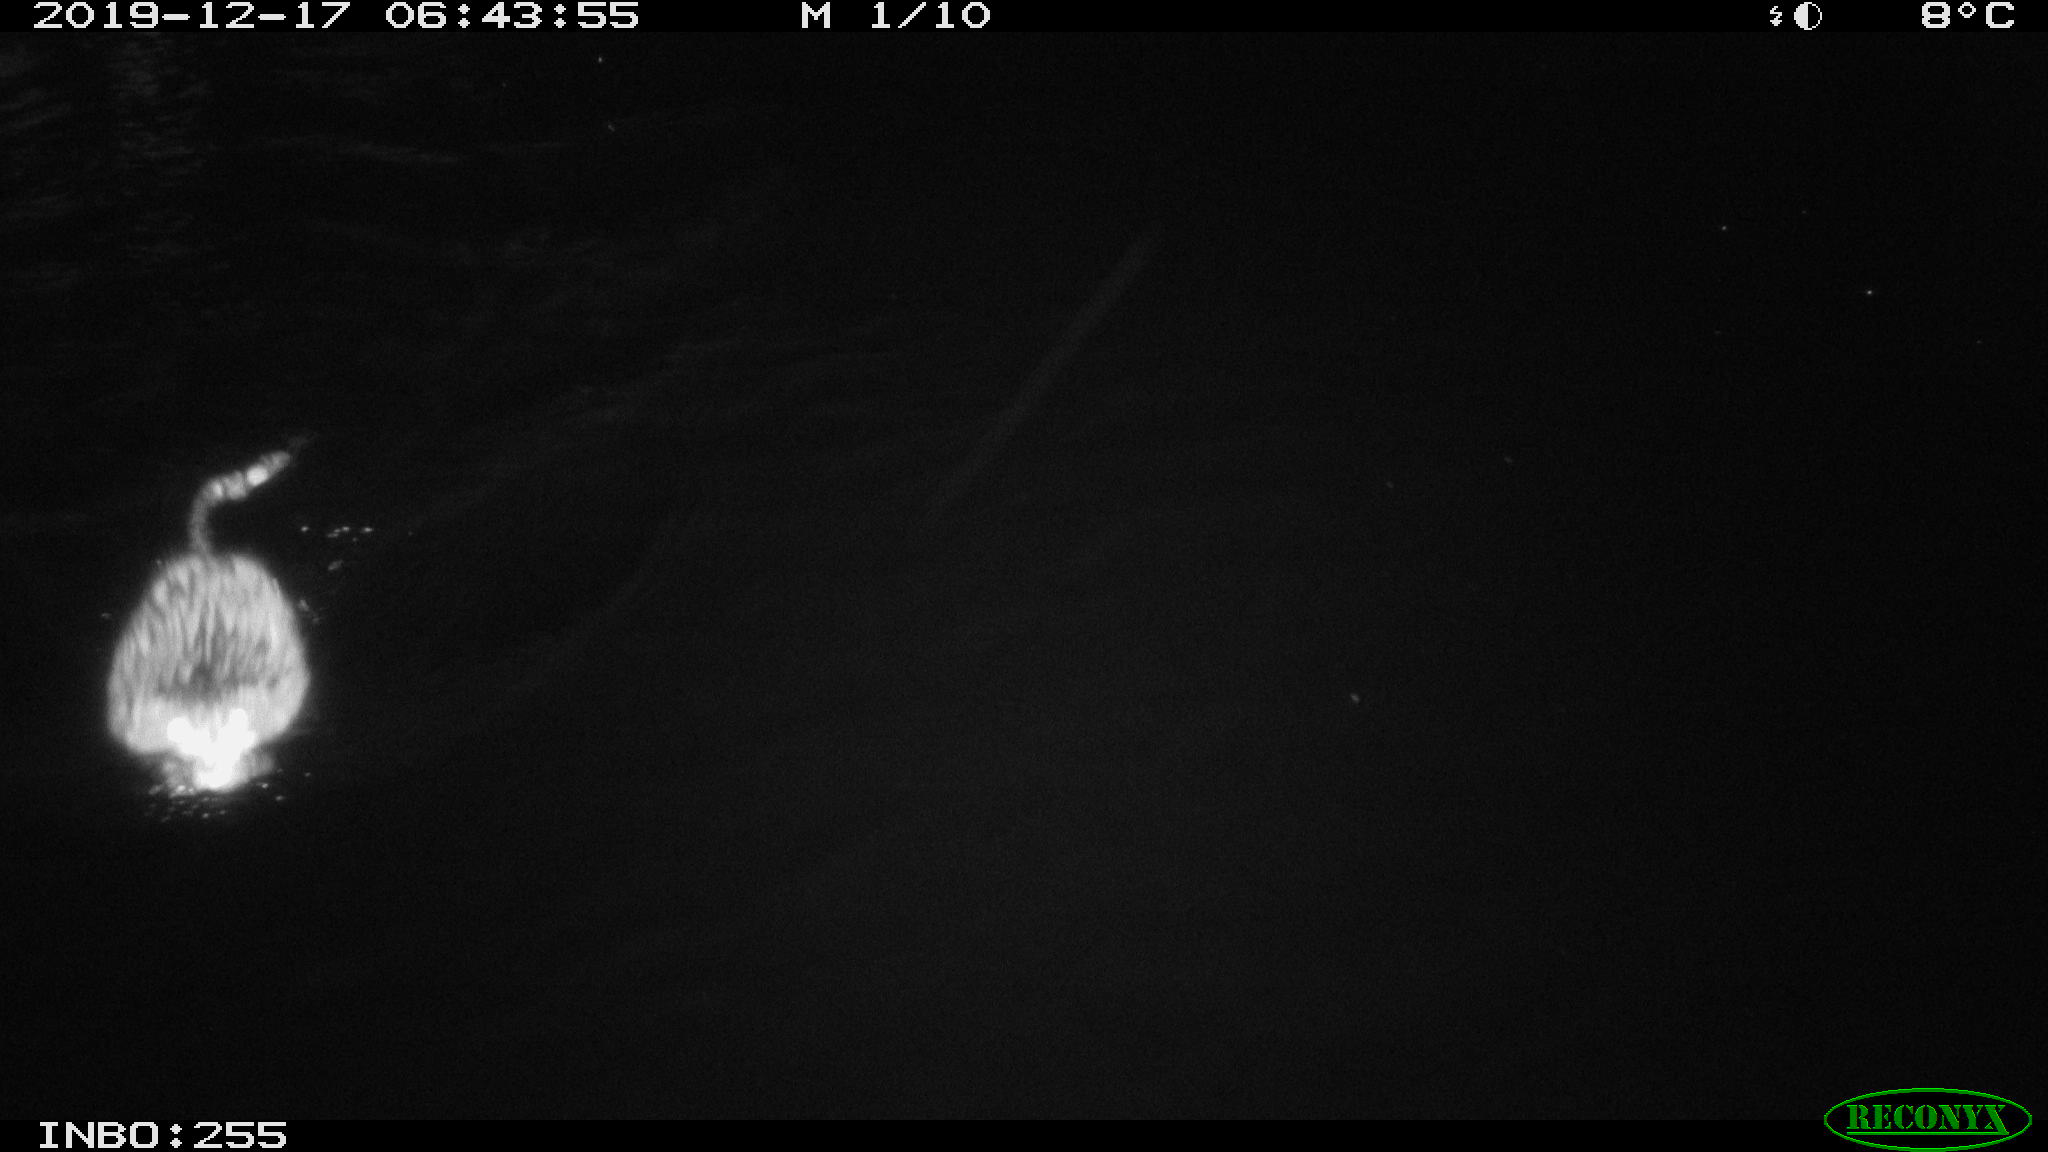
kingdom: Animalia
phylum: Chordata
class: Mammalia
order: Rodentia
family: Cricetidae
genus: Ondatra
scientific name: Ondatra zibethicus
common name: Muskrat
